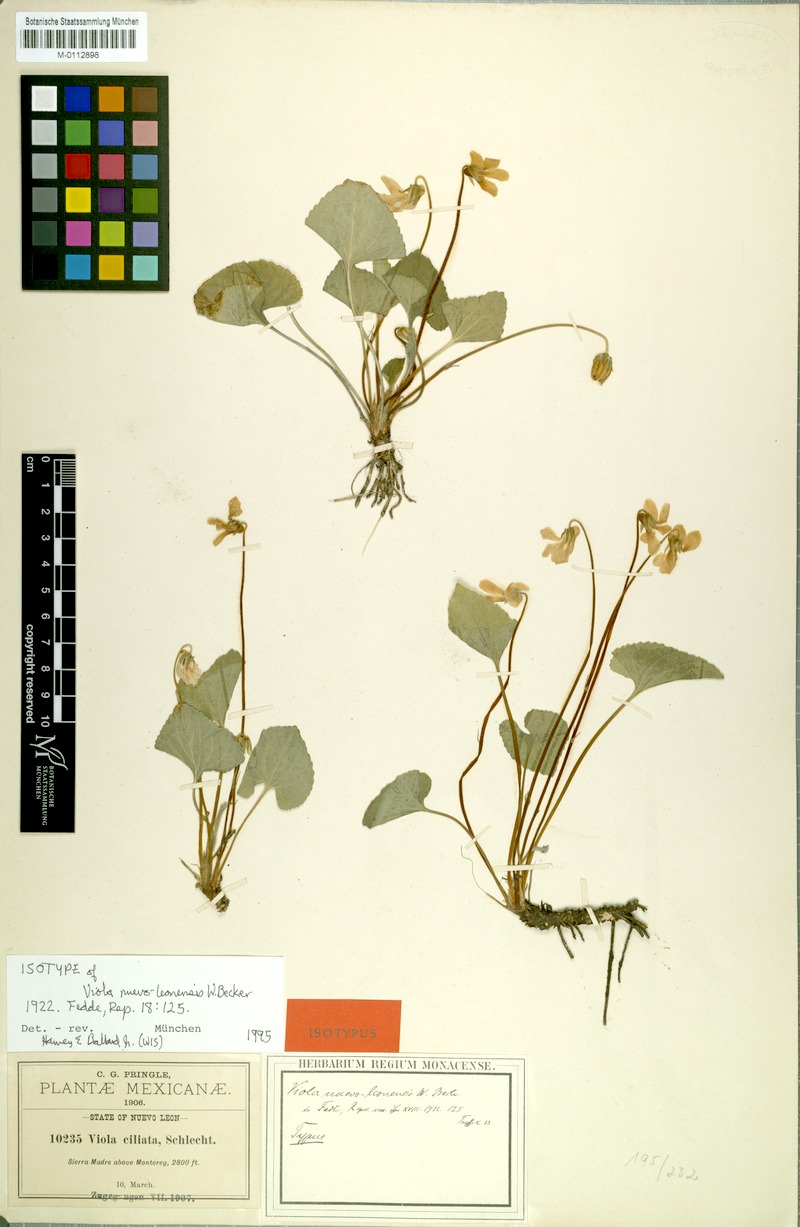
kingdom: Plantae
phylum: Tracheophyta
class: Magnoliopsida
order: Malpighiales
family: Violaceae
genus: Viola
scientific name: Viola nuevoleonensis
